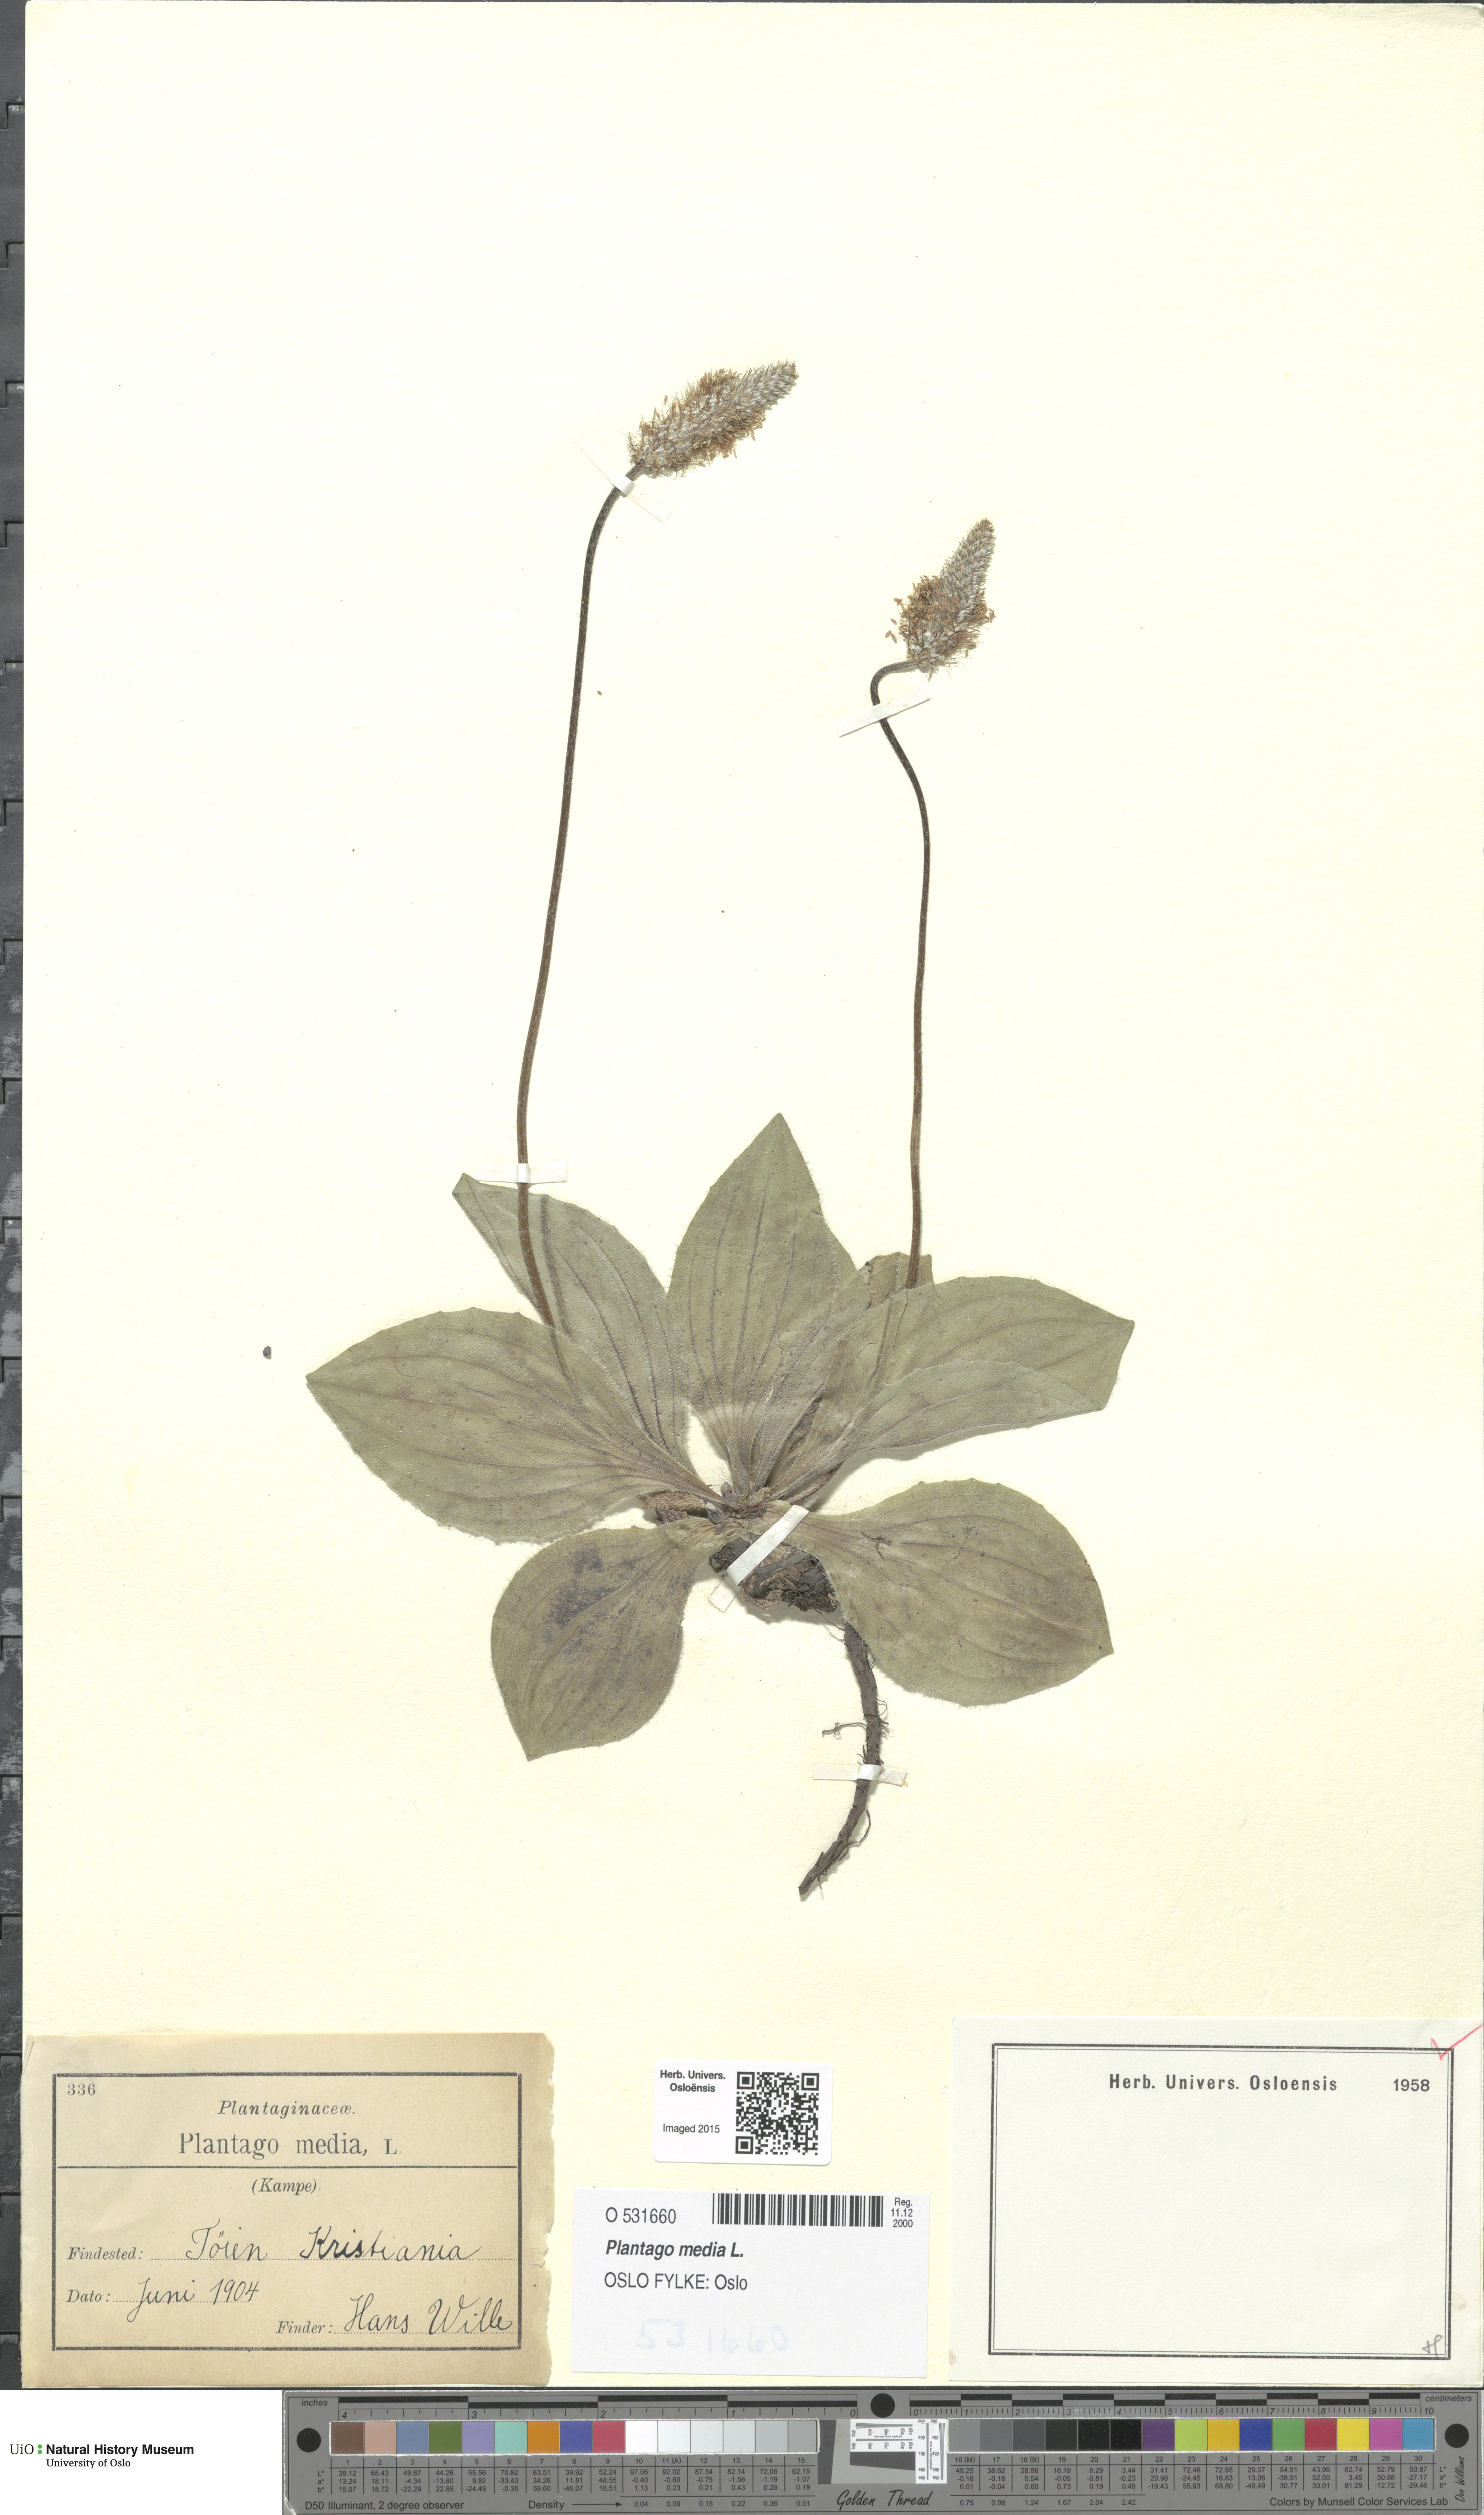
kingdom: Plantae
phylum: Tracheophyta
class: Magnoliopsida
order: Lamiales
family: Plantaginaceae
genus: Plantago
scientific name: Plantago media
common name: Hoary plantain
